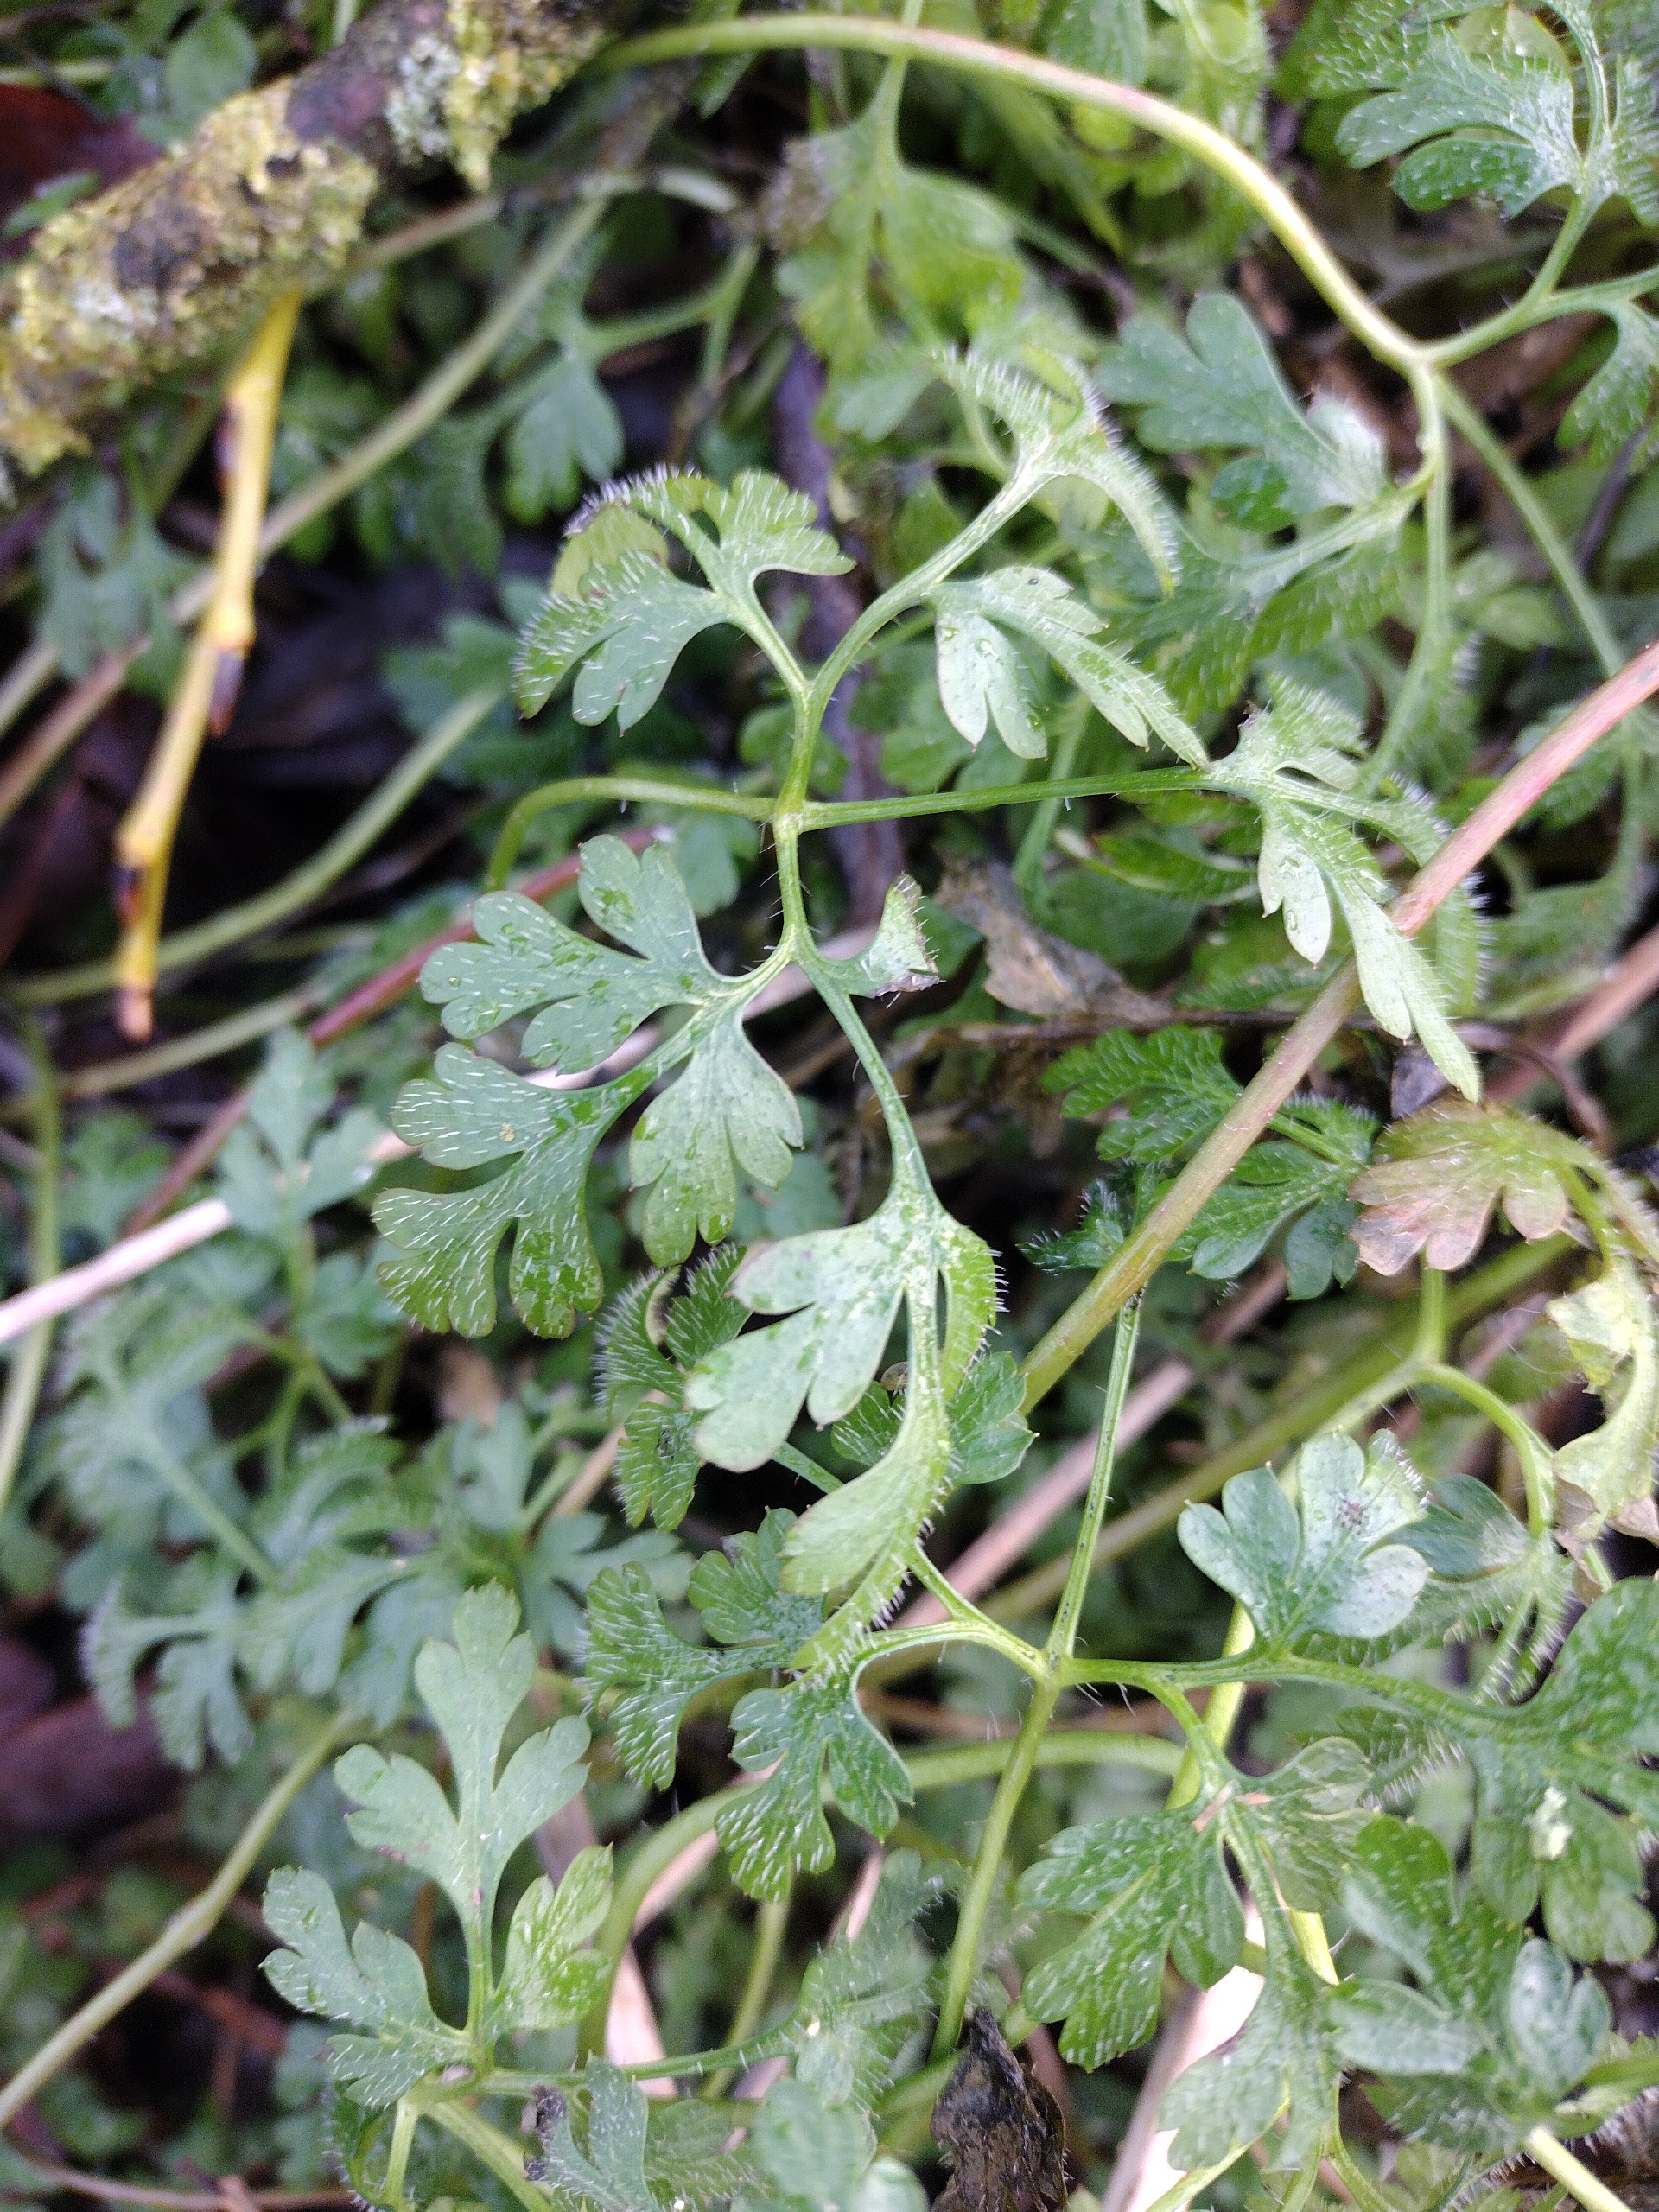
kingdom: Plantae
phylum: Tracheophyta
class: Magnoliopsida
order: Geraniales
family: Geraniaceae
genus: Geranium
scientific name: Geranium robertianum
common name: Stinkende storkenæb
